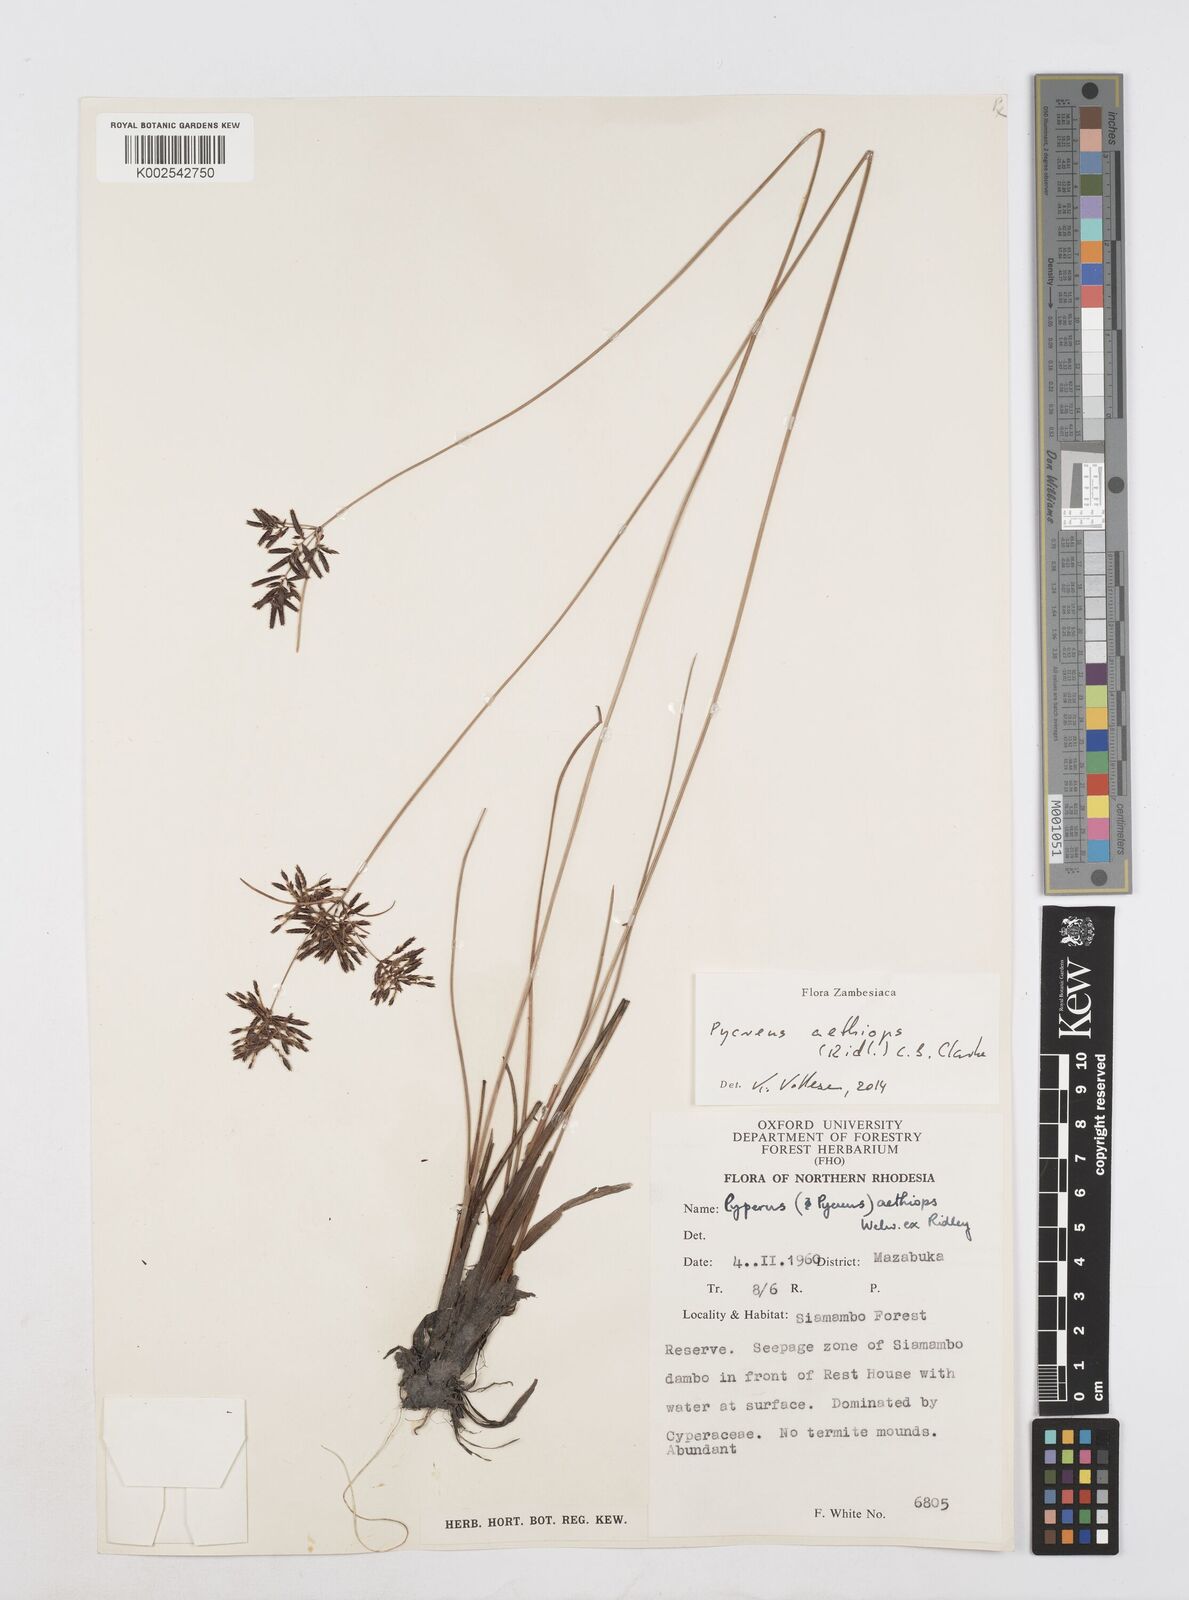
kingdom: Plantae
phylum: Tracheophyta
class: Liliopsida
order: Poales
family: Cyperaceae
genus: Cyperus
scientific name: Cyperus aethiops
